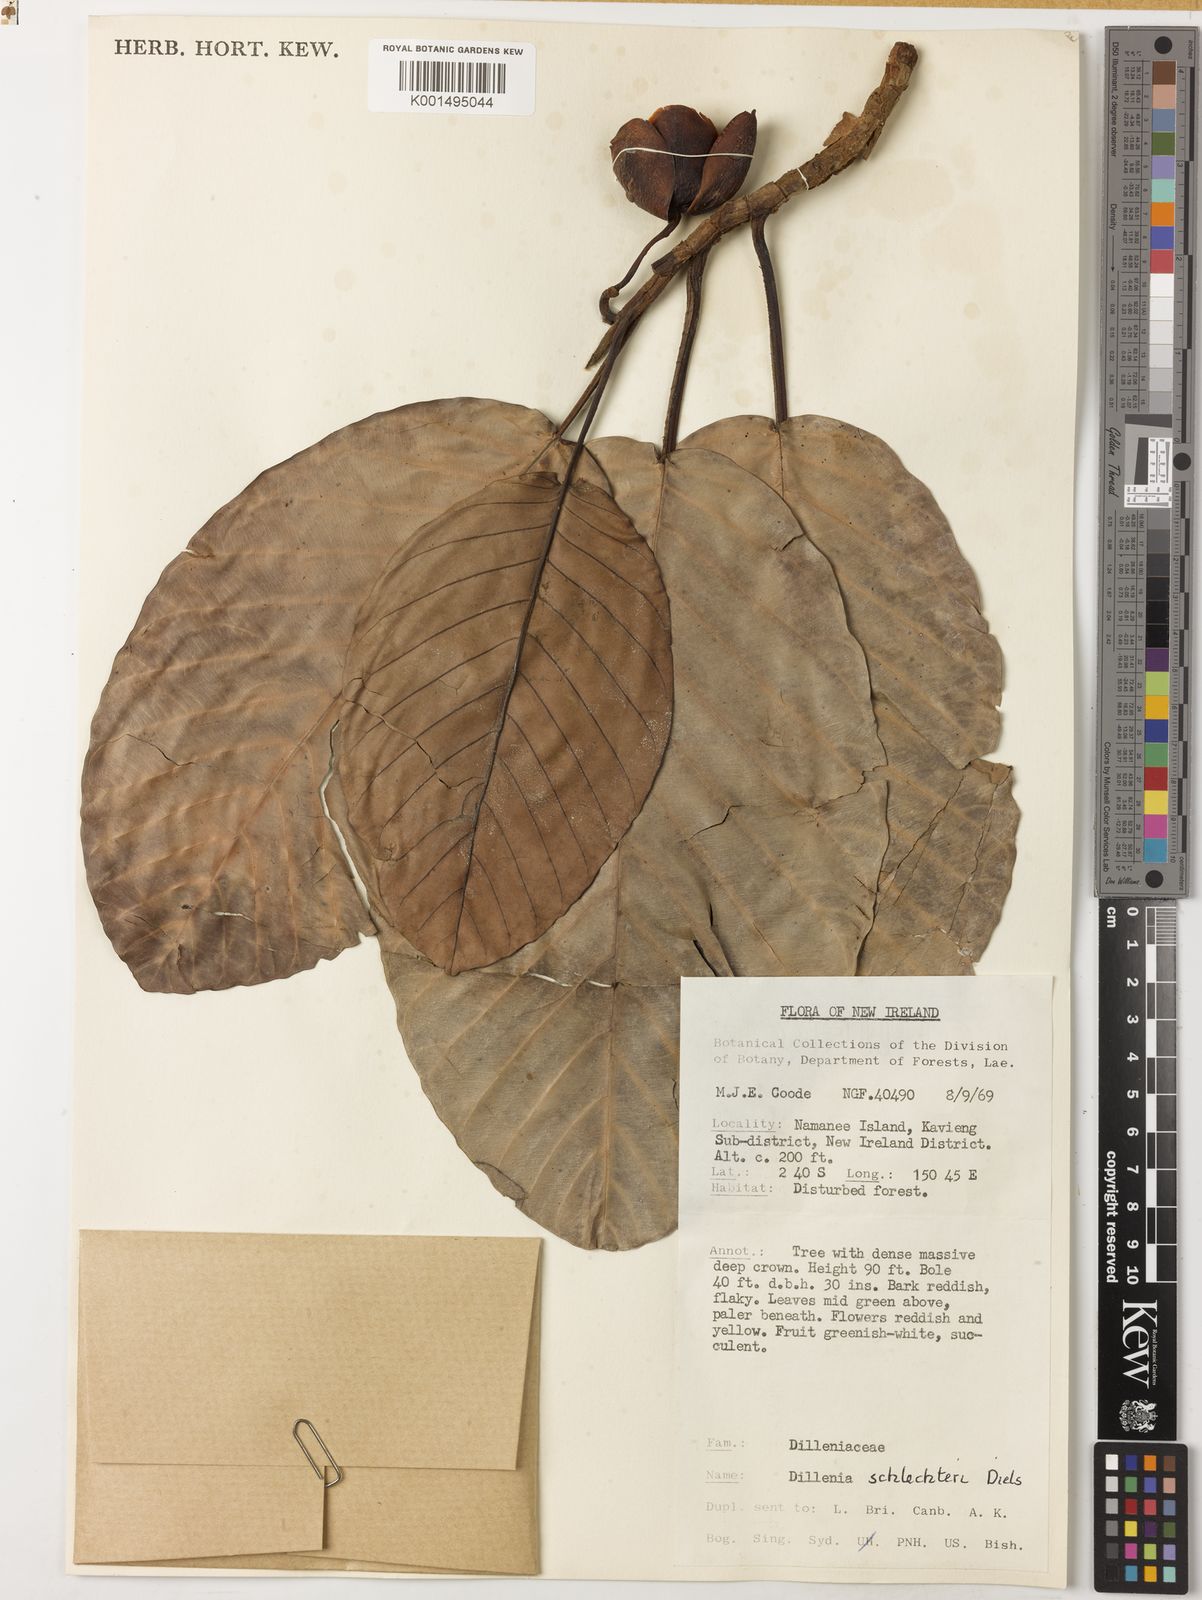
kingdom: Plantae
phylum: Tracheophyta
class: Magnoliopsida
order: Dilleniales
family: Dilleniaceae
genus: Dillenia
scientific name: Dillenia schlechteri
